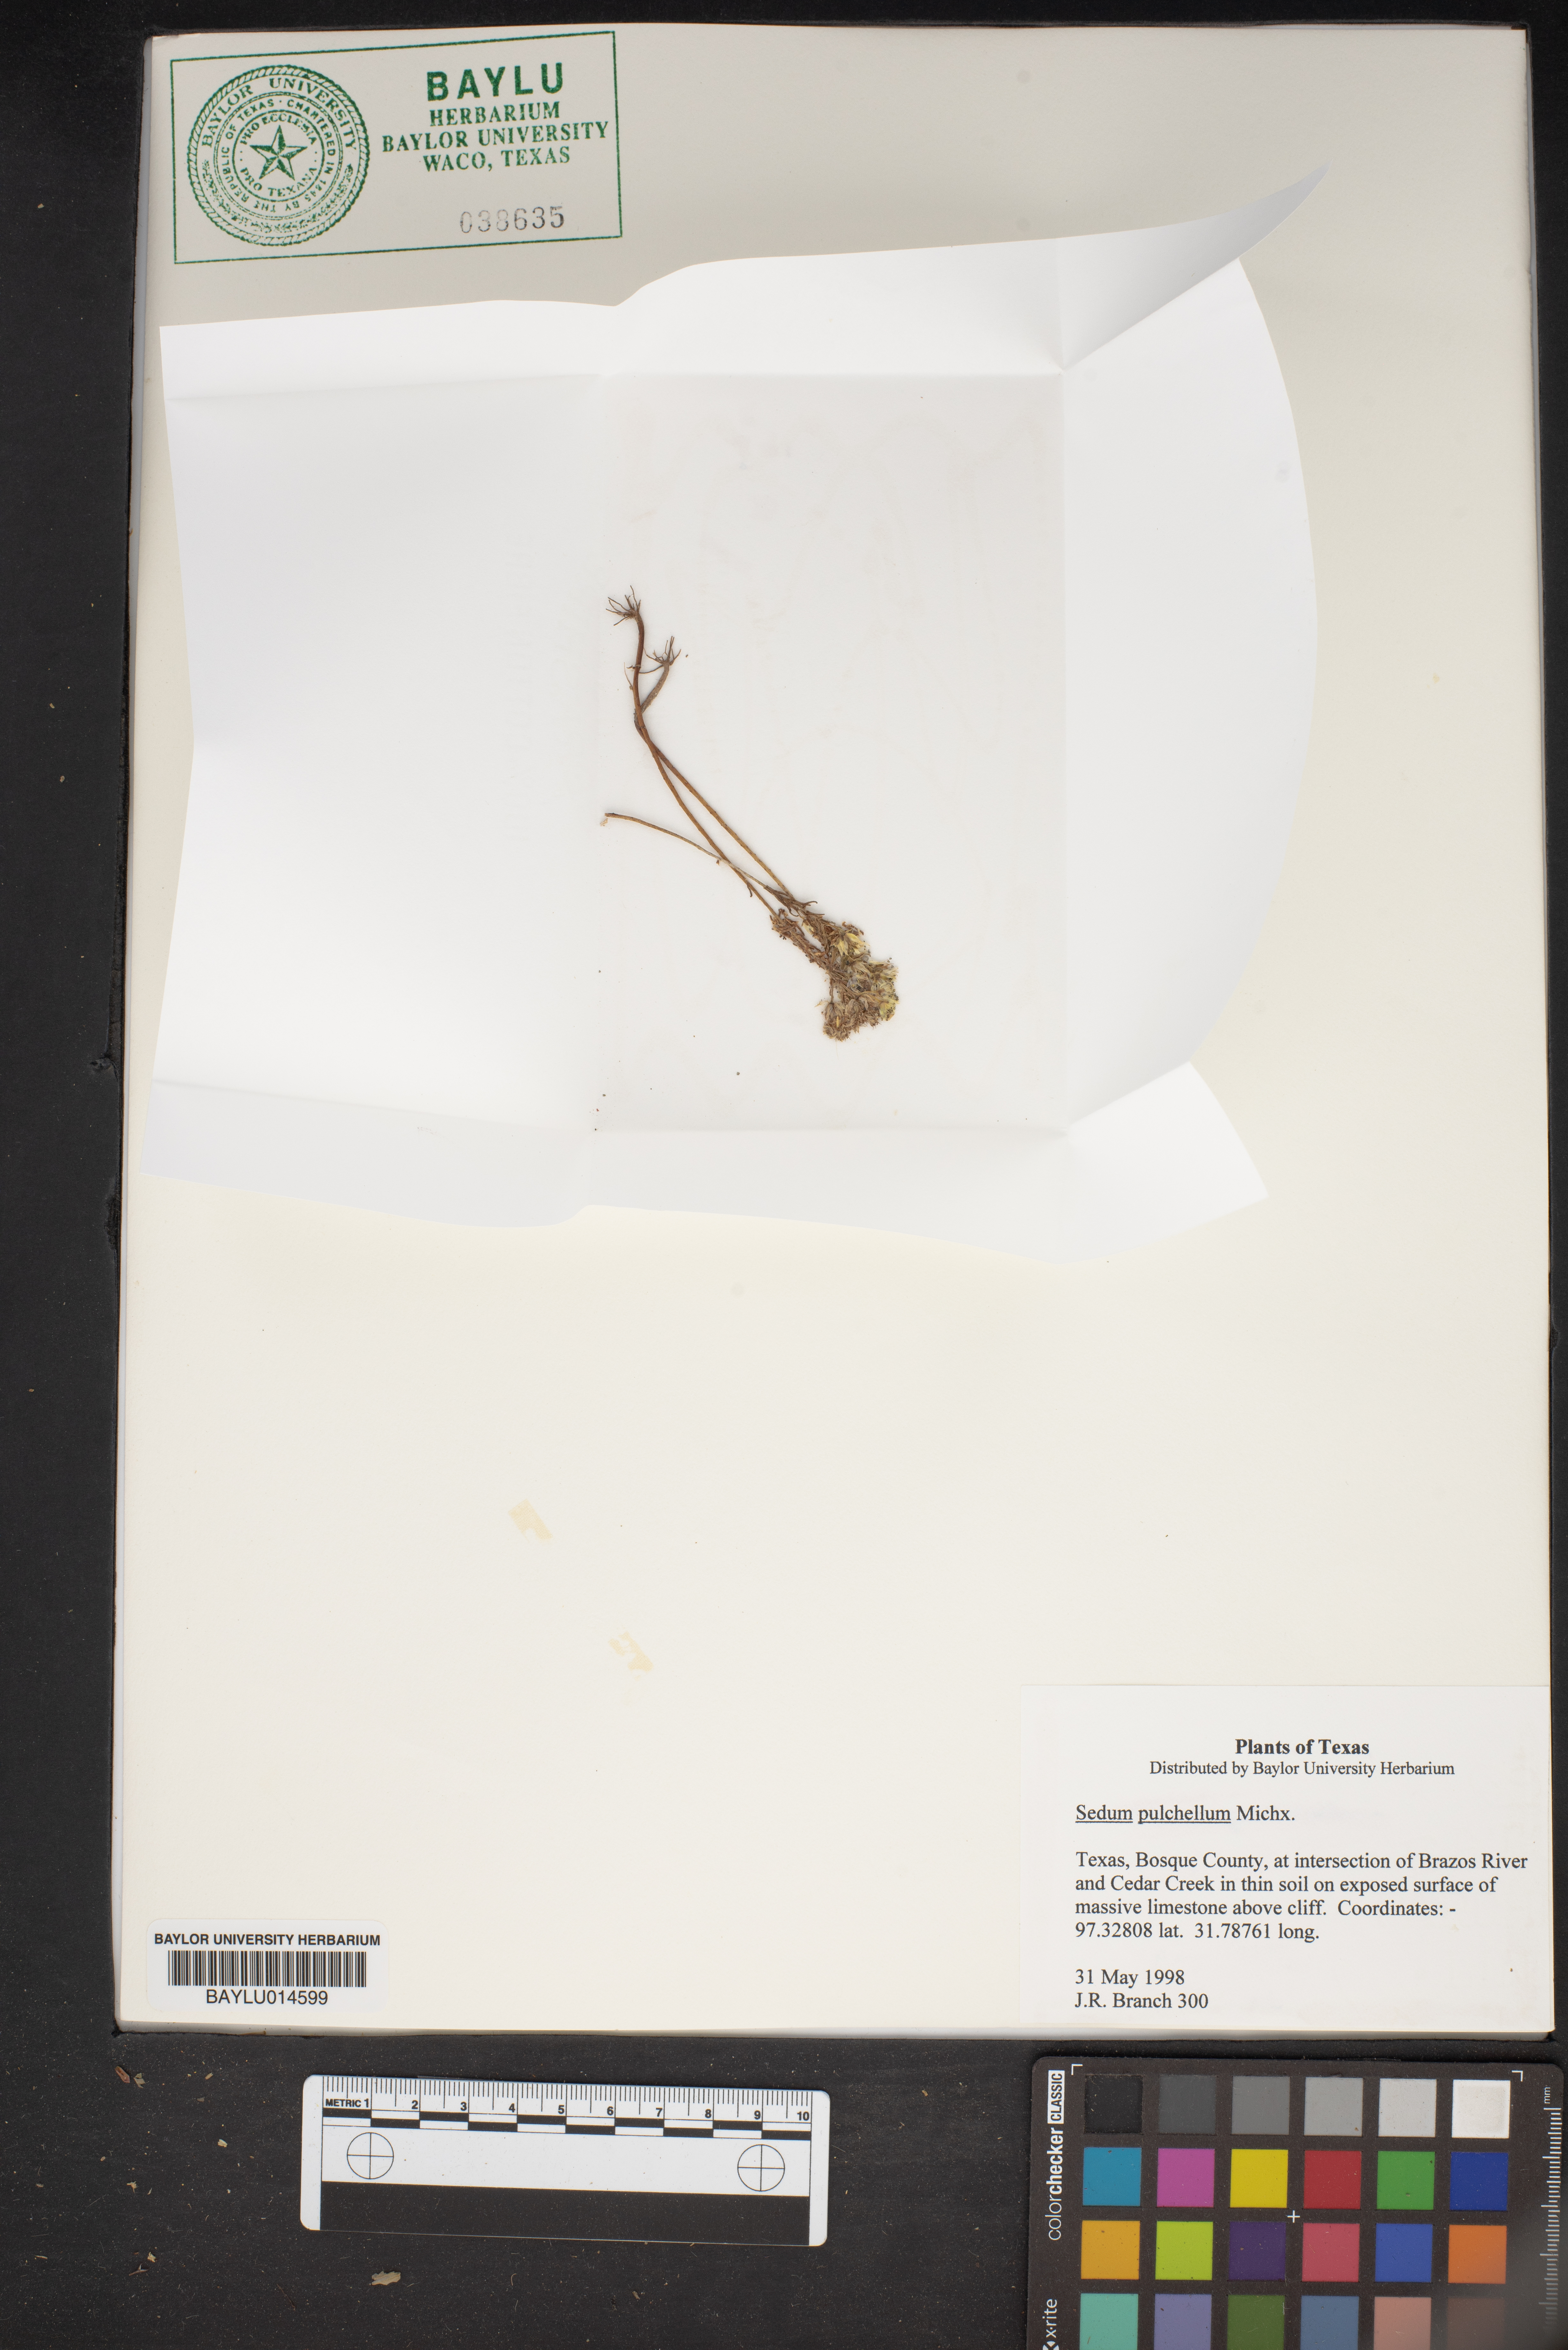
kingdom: Plantae
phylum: Tracheophyta
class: Magnoliopsida
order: Saxifragales
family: Crassulaceae
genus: Sedum
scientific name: Sedum pulchellum
